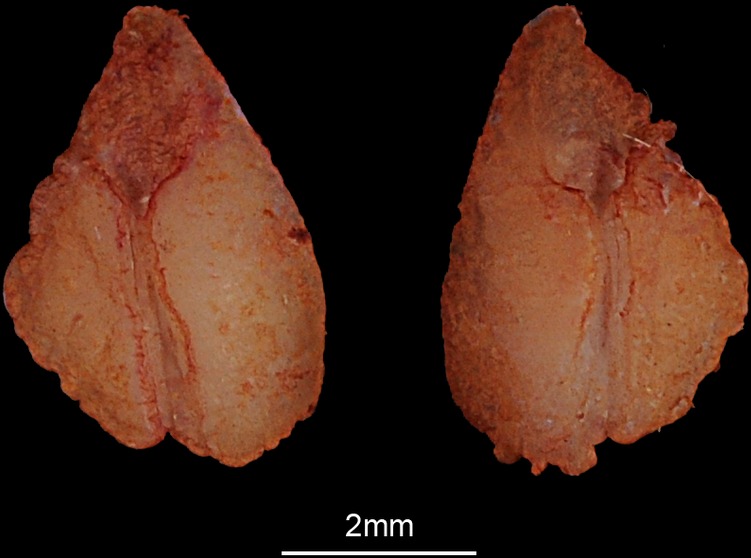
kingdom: Animalia
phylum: Chordata
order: Salmoniformes
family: Salmonidae
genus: Salmo
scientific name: Salmo trutta
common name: Brown trout
